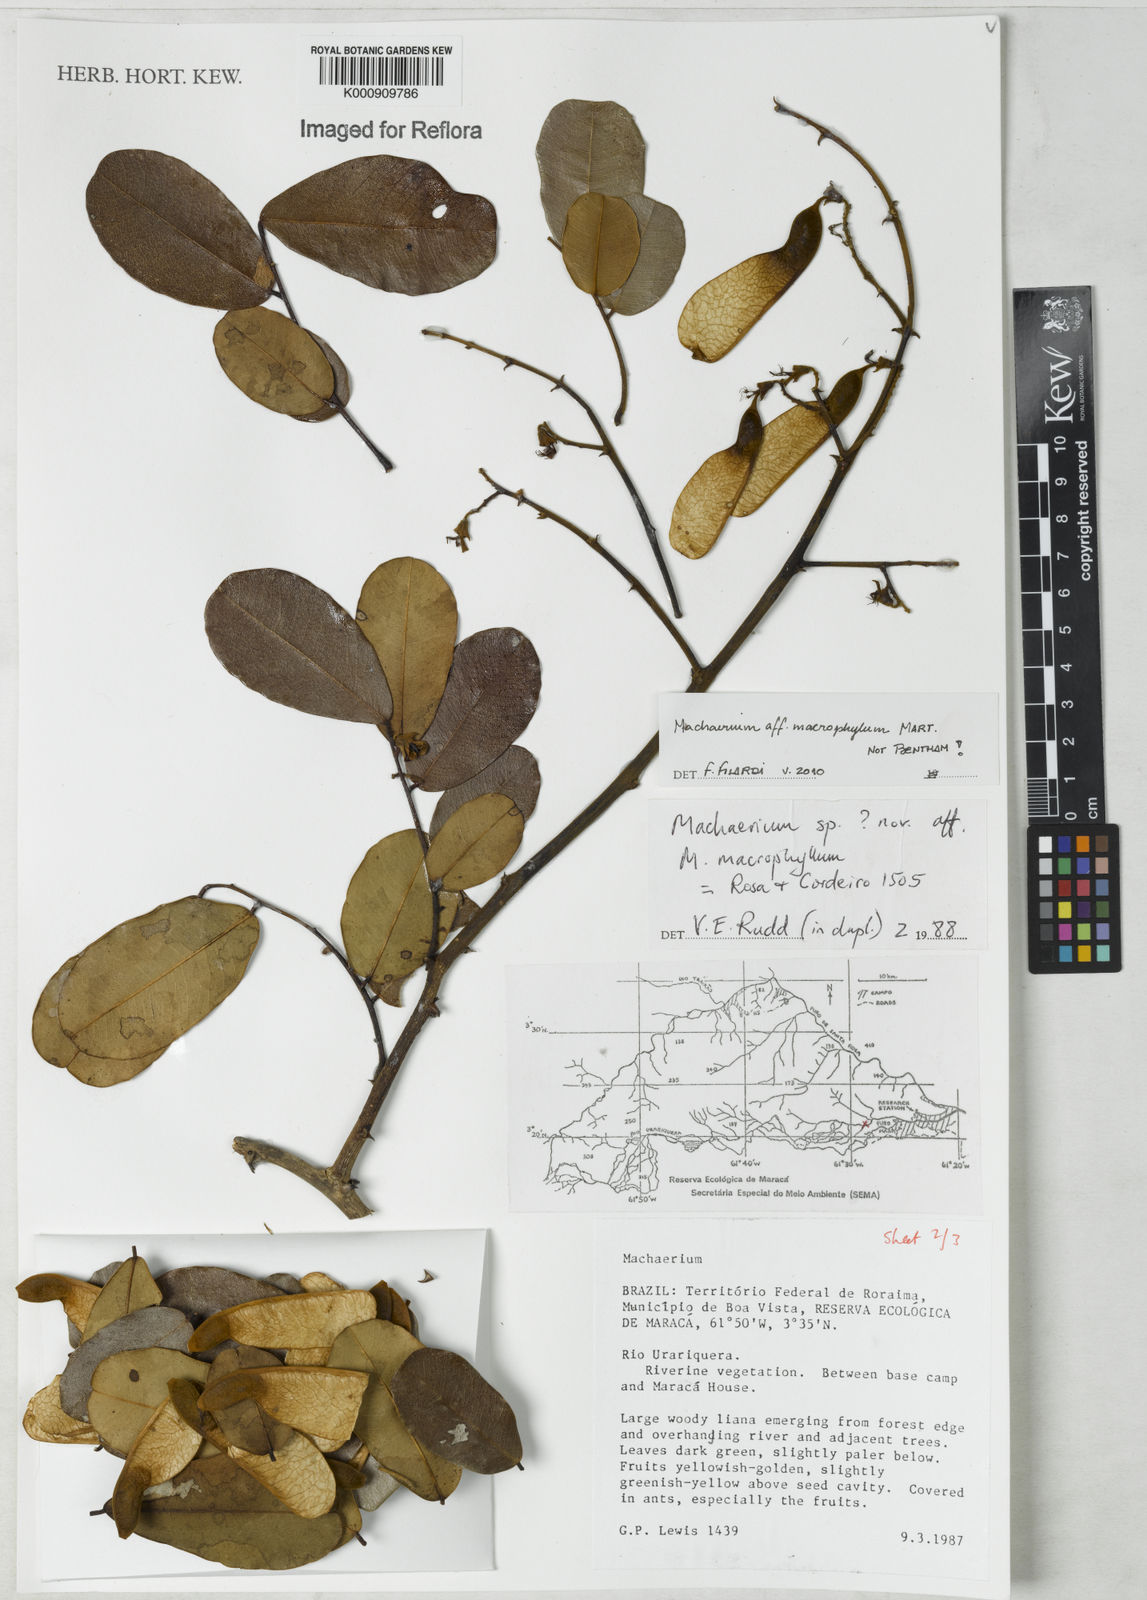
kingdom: Plantae
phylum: Tracheophyta
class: Magnoliopsida
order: Fabales
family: Fabaceae
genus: Machaerium
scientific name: Machaerium macrophyllum
